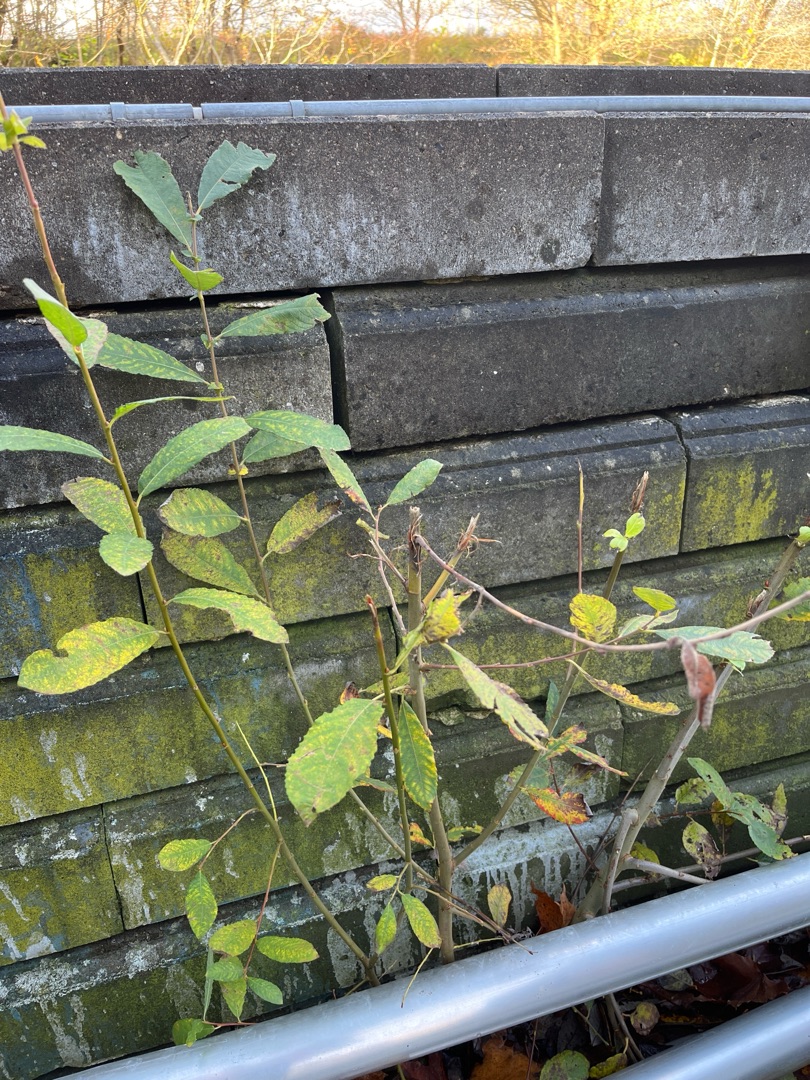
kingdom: Plantae
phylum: Tracheophyta
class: Magnoliopsida
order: Malpighiales
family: Salicaceae
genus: Salix
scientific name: Salix cinerea
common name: Grå-pil
